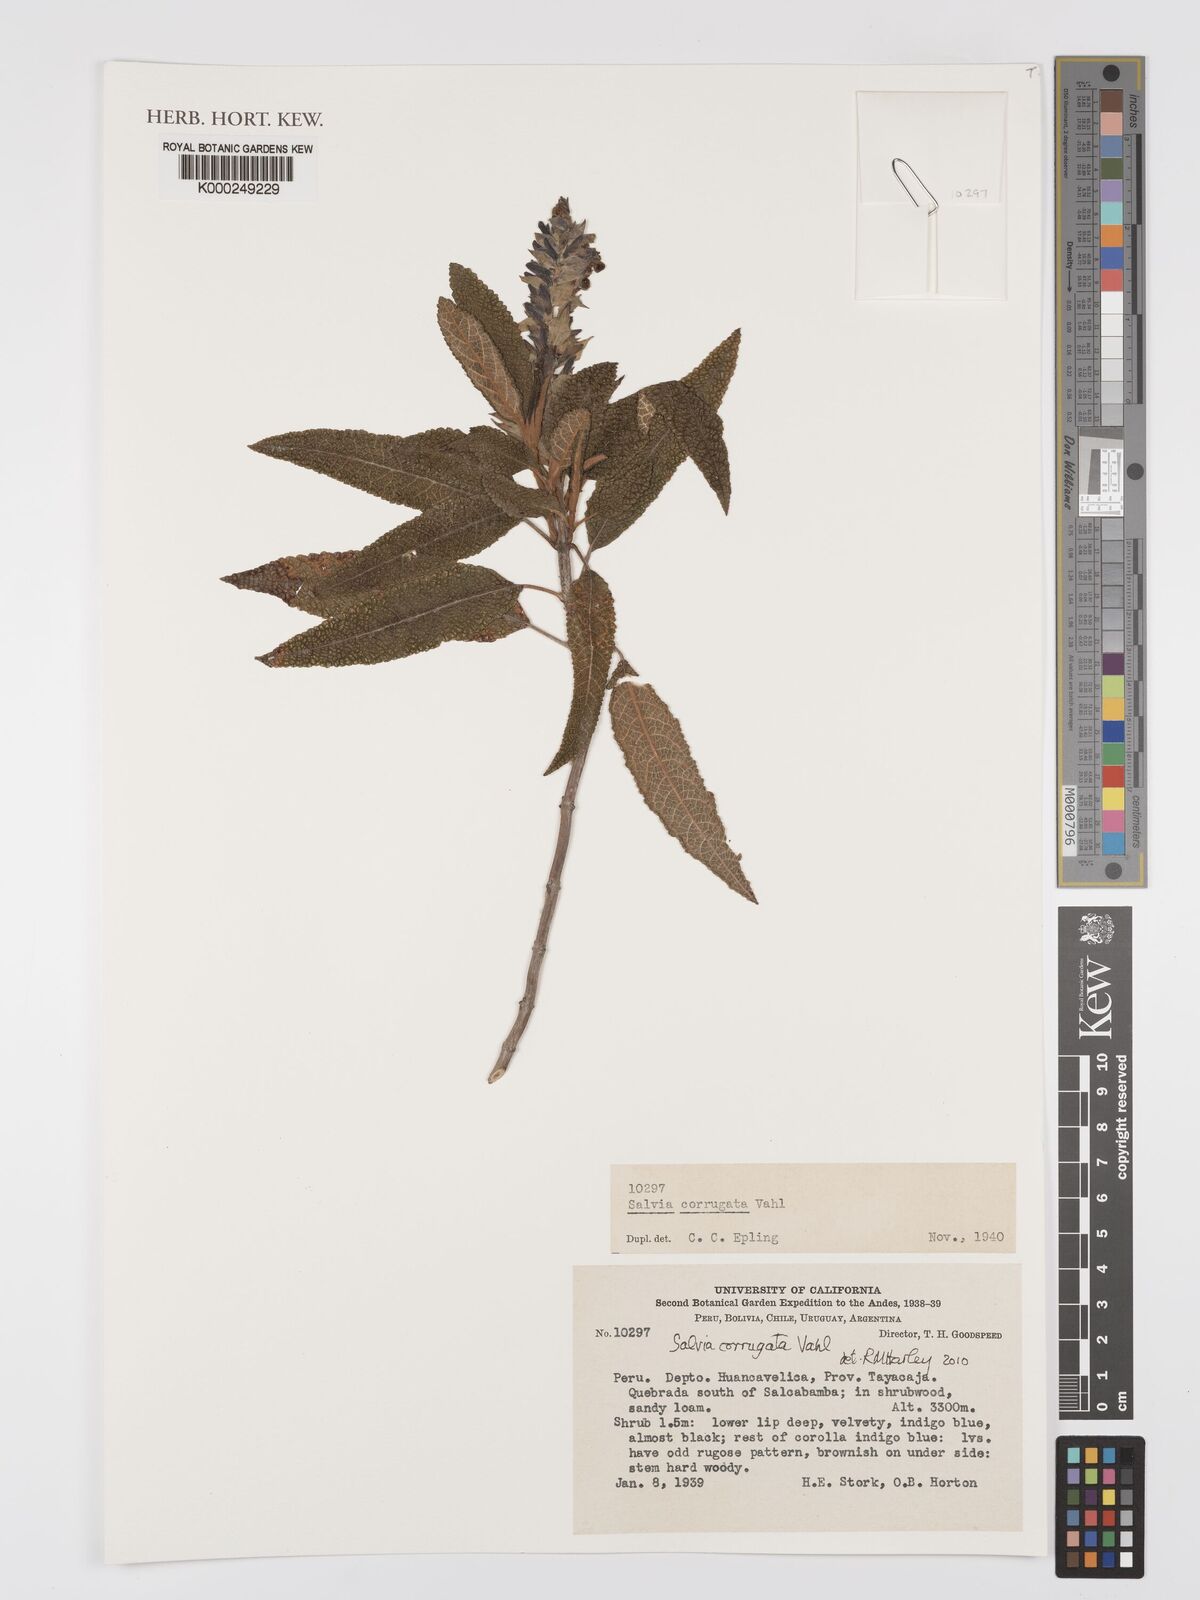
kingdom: Plantae
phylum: Tracheophyta
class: Magnoliopsida
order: Lamiales
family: Lamiaceae
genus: Salvia
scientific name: Salvia corrugata
